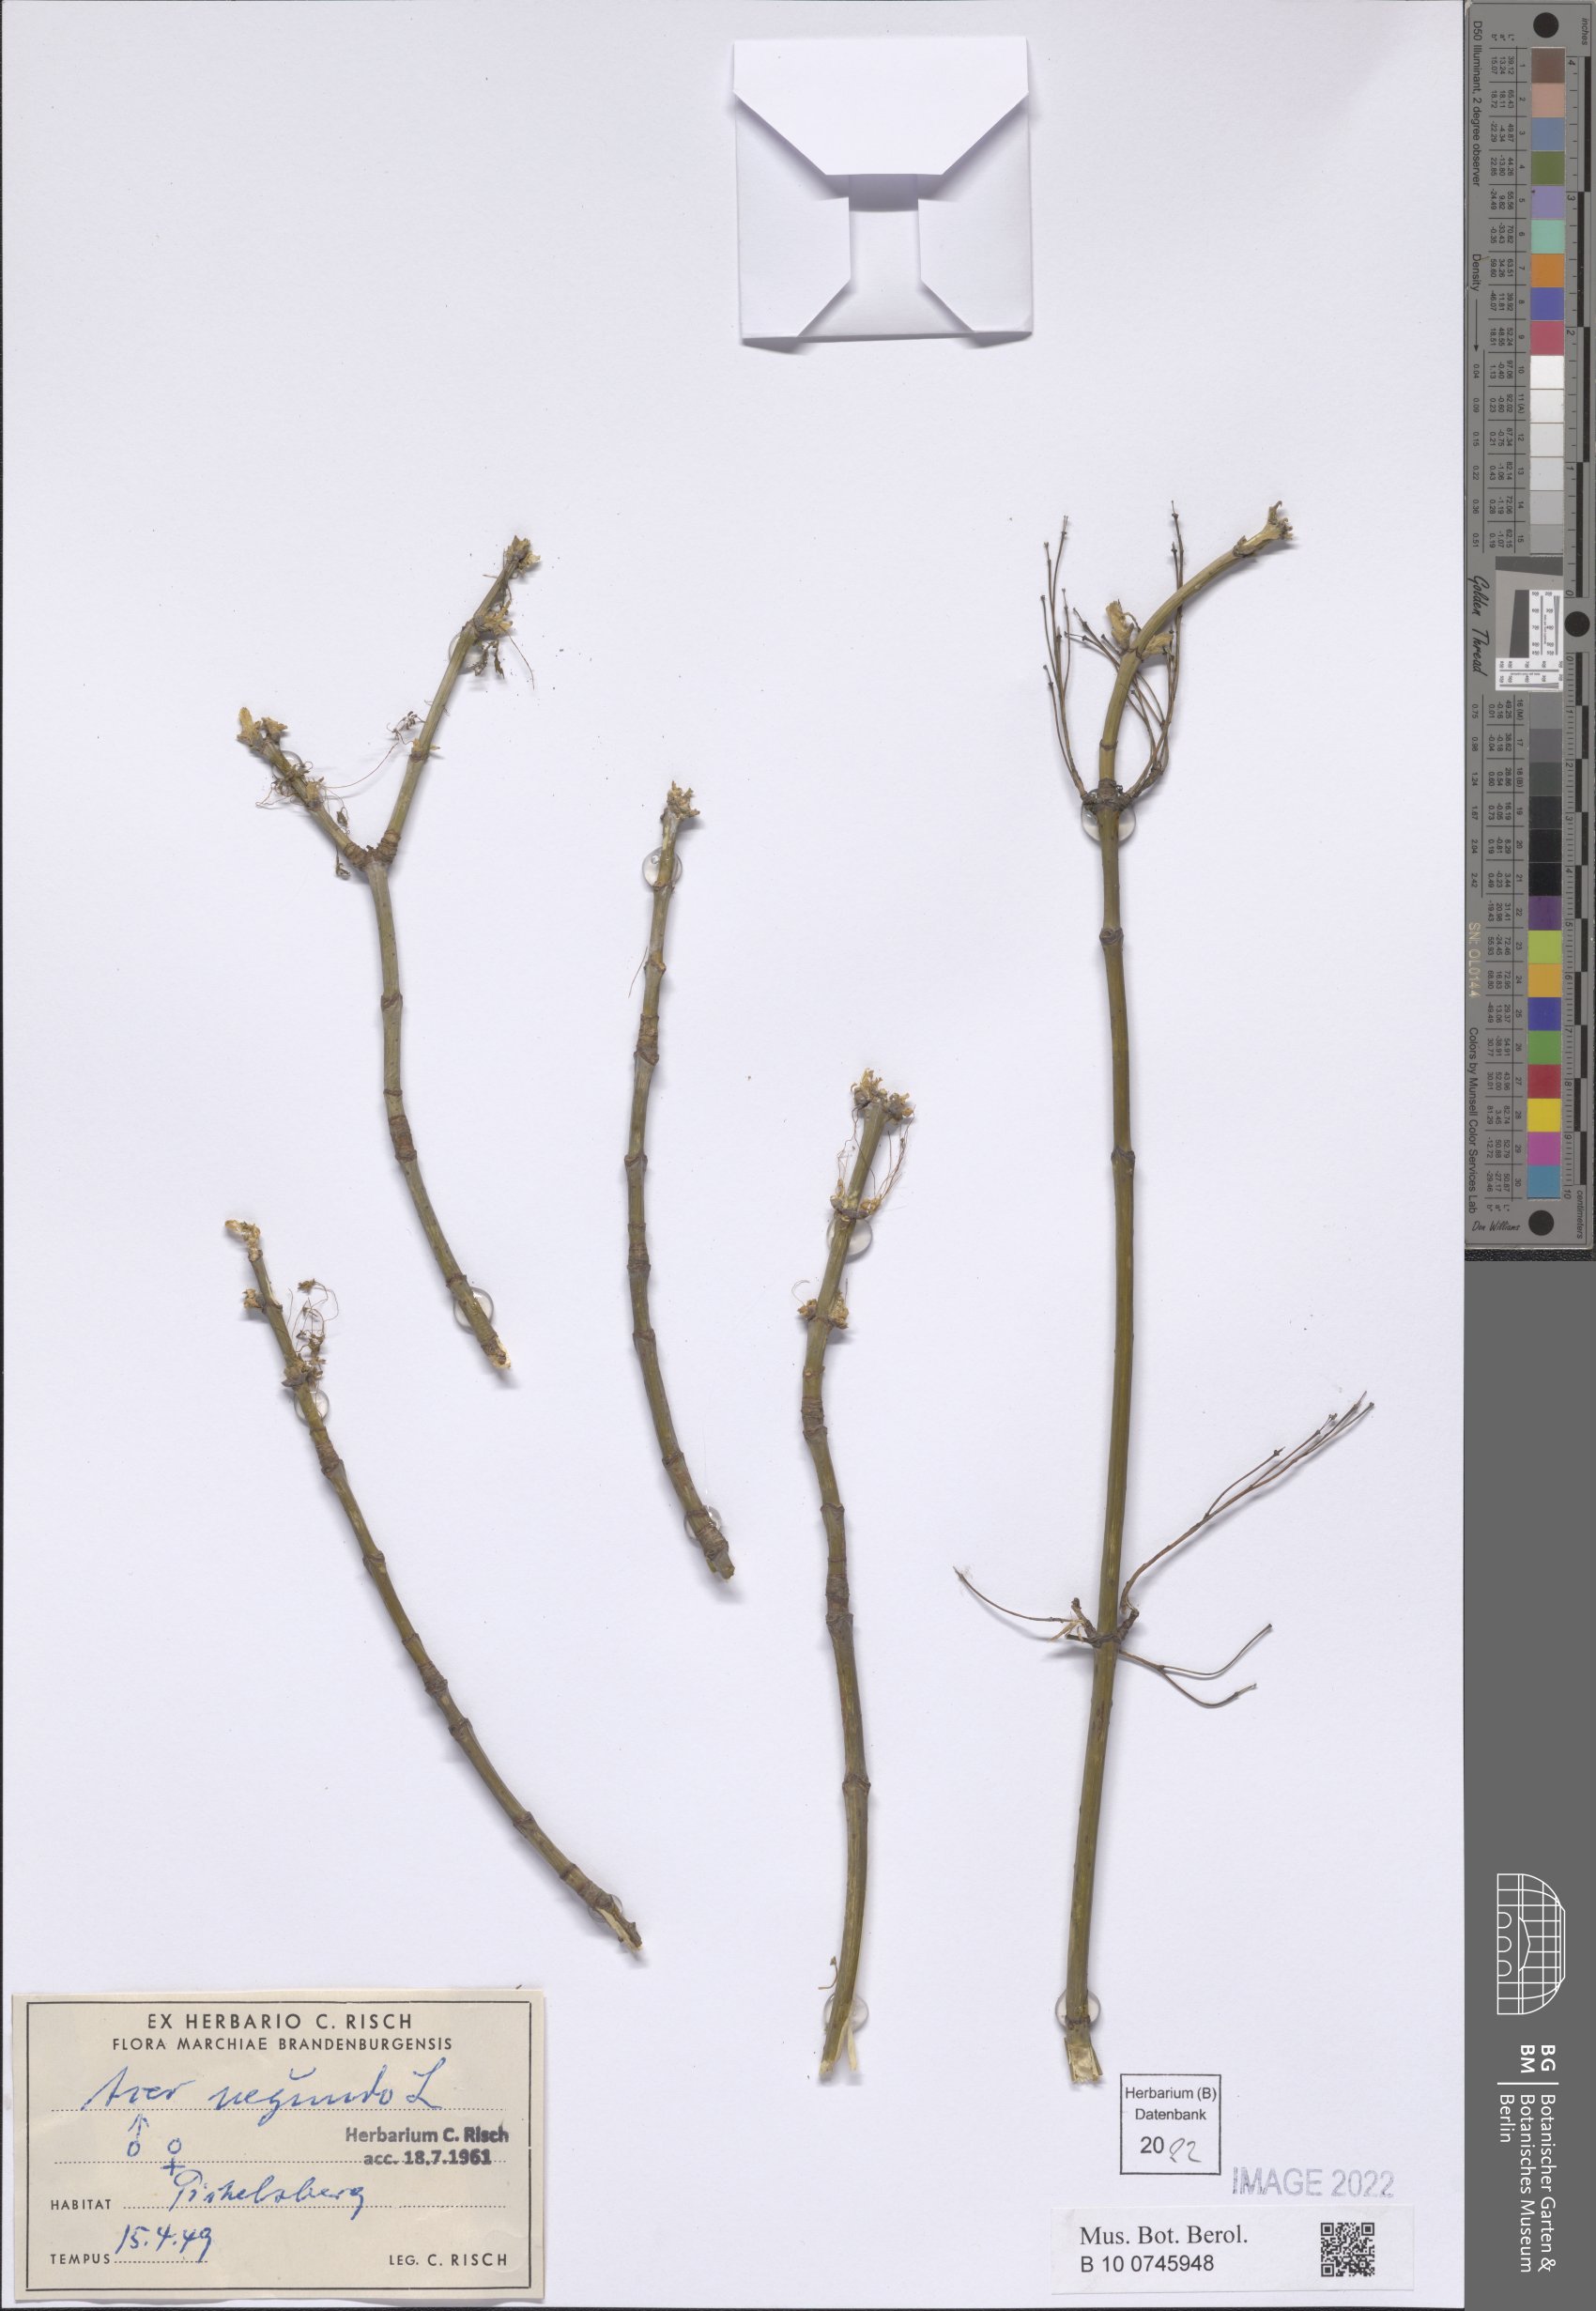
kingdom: Plantae
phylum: Tracheophyta
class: Magnoliopsida
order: Sapindales
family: Sapindaceae
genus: Acer
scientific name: Acer negundo
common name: Ashleaf maple
